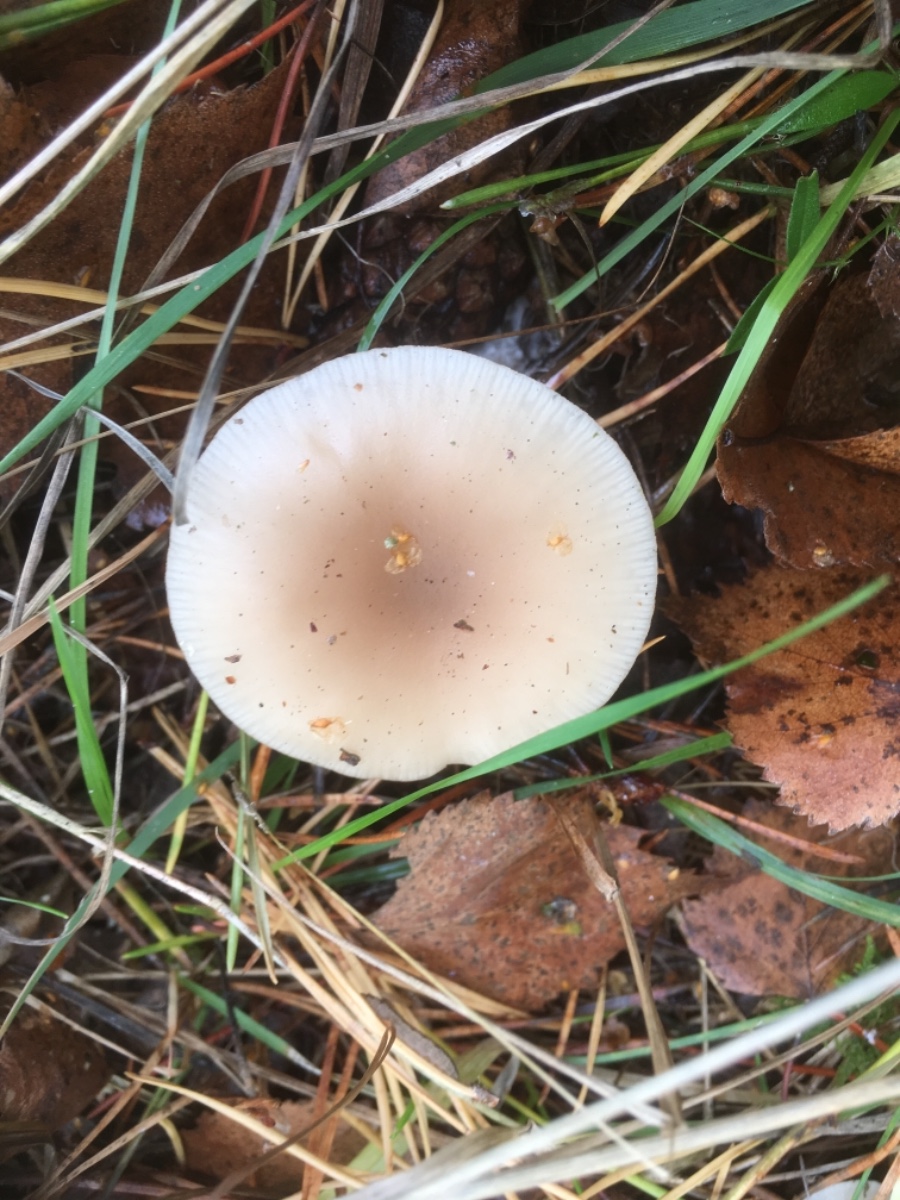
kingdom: Fungi
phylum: Basidiomycota
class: Agaricomycetes
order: Agaricales
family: Tricholomataceae
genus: Clitocybe
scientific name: Clitocybe fragrans
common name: vellugtende tragthat
